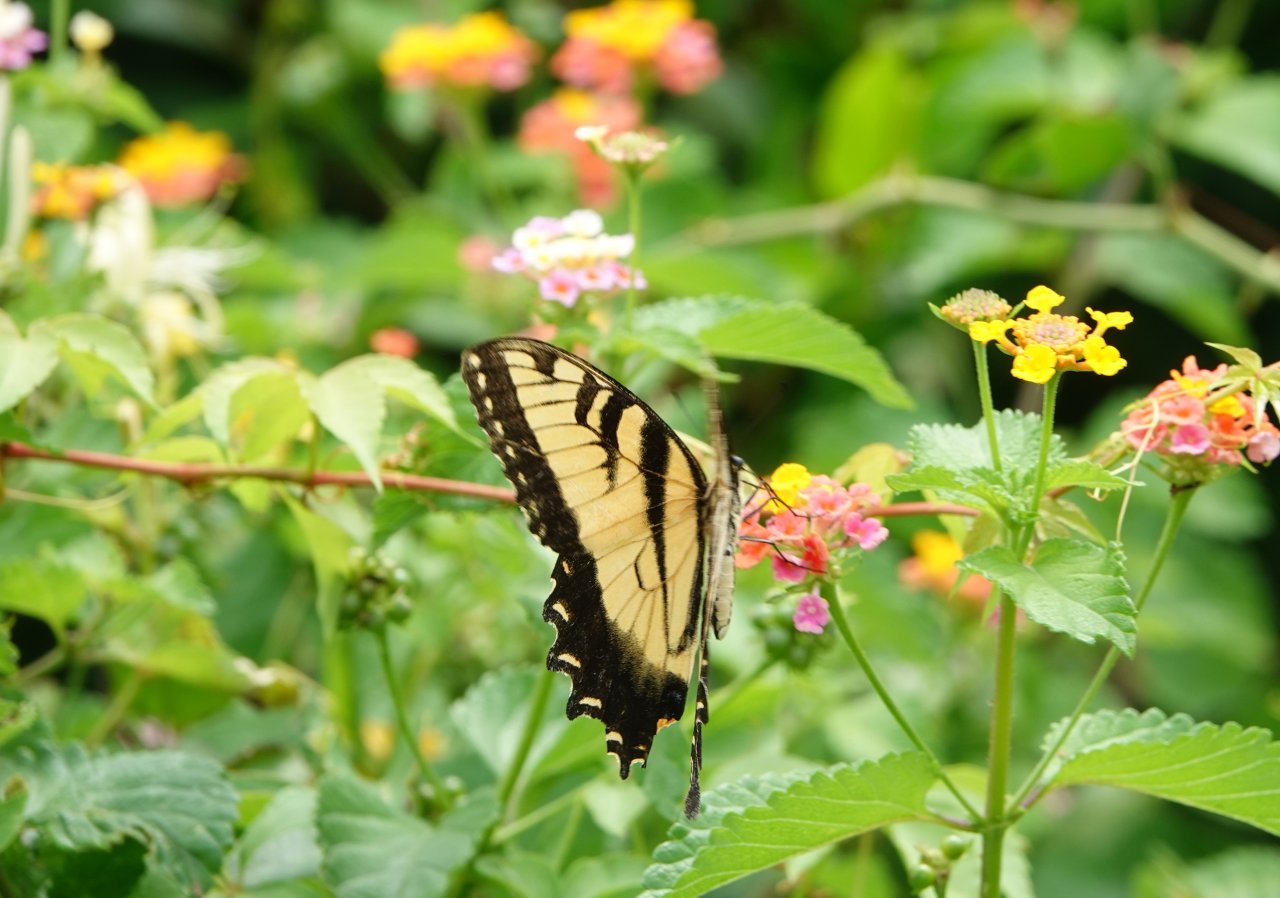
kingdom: Animalia
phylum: Arthropoda
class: Insecta
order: Lepidoptera
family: Papilionidae
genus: Pterourus
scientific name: Pterourus glaucus
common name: Eastern Tiger Swallowtail
